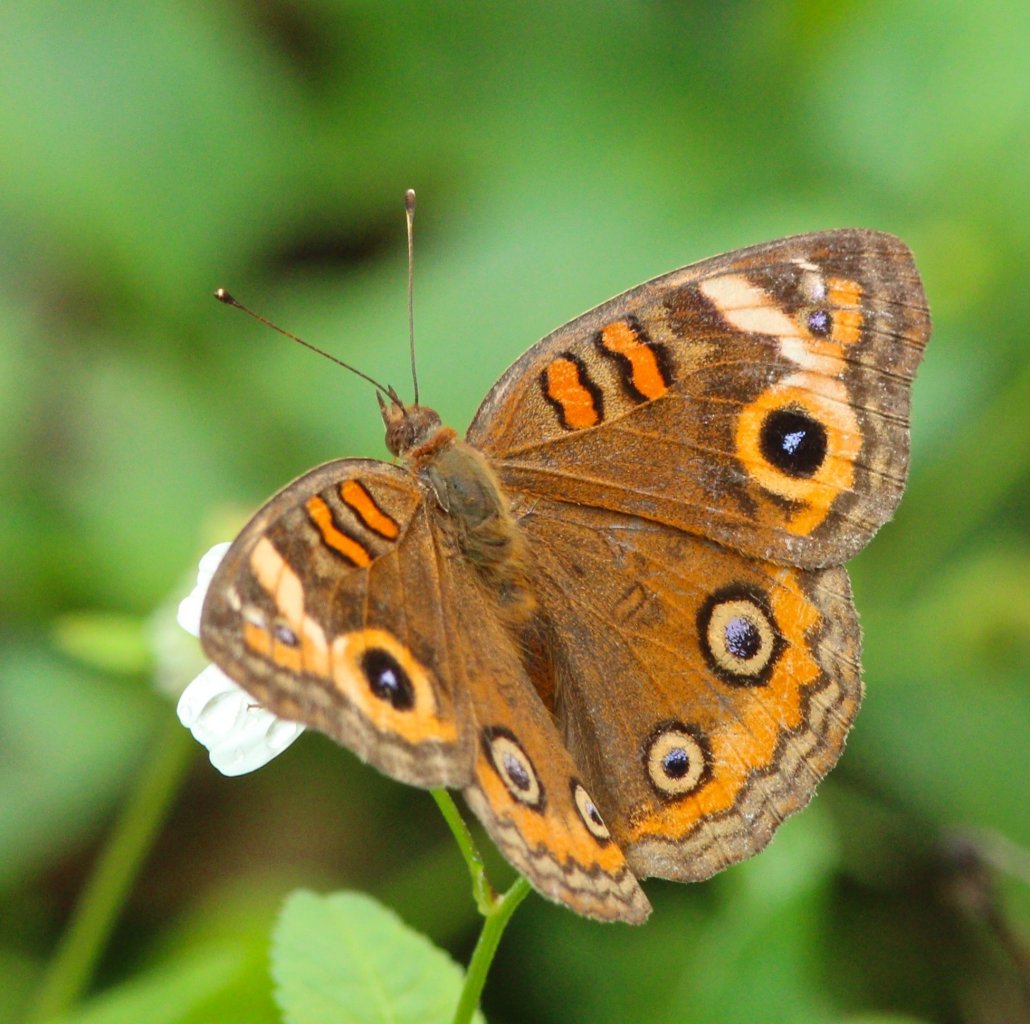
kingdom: Animalia
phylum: Arthropoda
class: Insecta
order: Lepidoptera
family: Nymphalidae
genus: Junonia
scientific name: Junonia evarete
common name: Mangrove Buckeye
